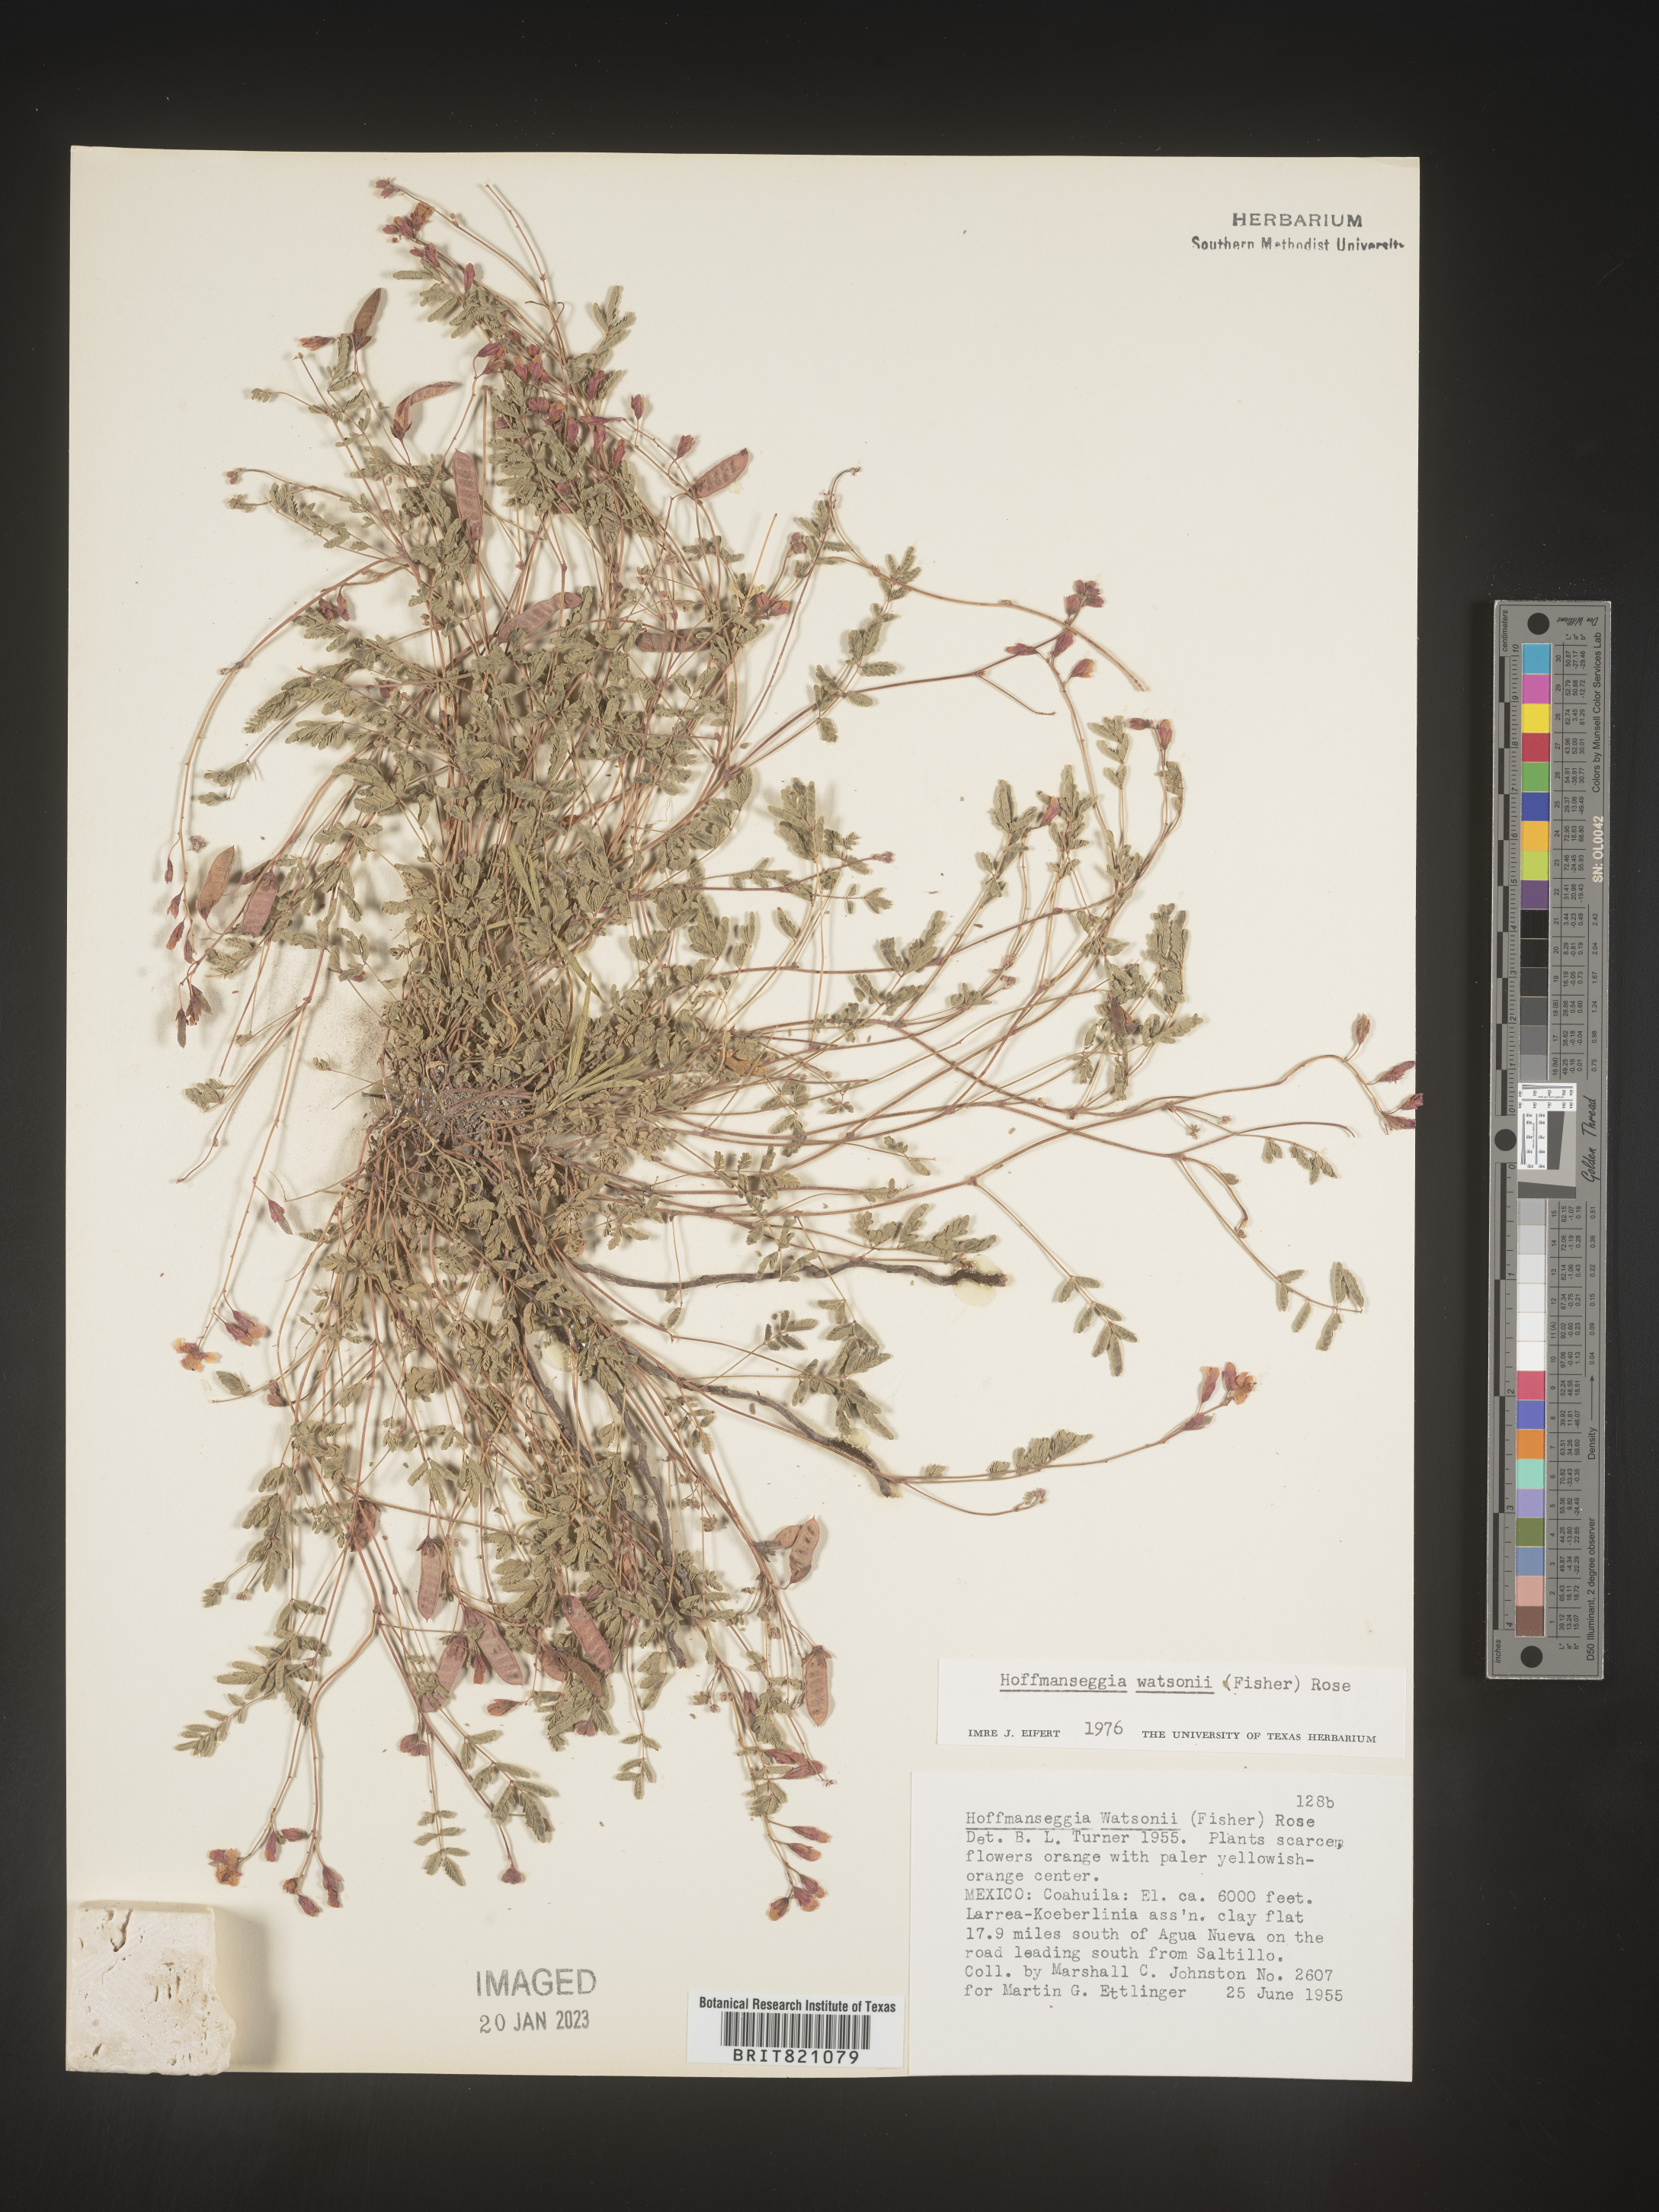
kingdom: Plantae
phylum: Tracheophyta
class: Magnoliopsida
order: Fabales
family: Fabaceae
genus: Hoffmannseggia
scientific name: Hoffmannseggia
